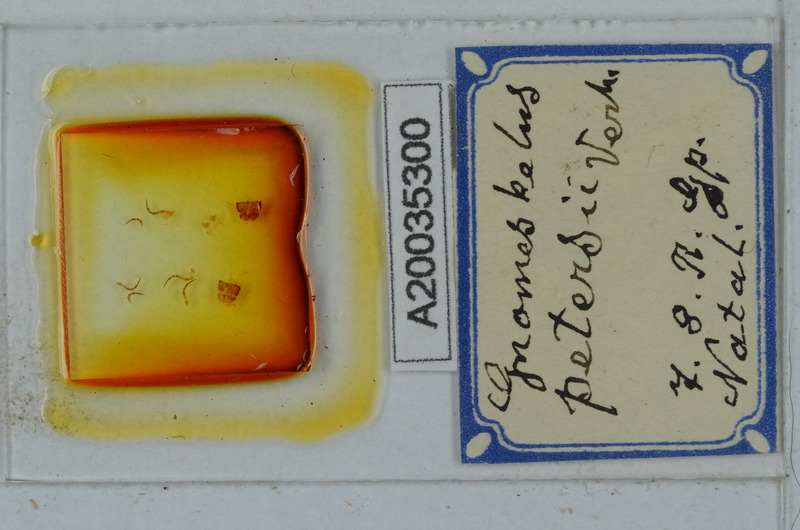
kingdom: Animalia
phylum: Arthropoda
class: Diplopoda
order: Polydesmida
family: Dalodesmidae
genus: Gnomeskelus
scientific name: Gnomeskelus petersii
